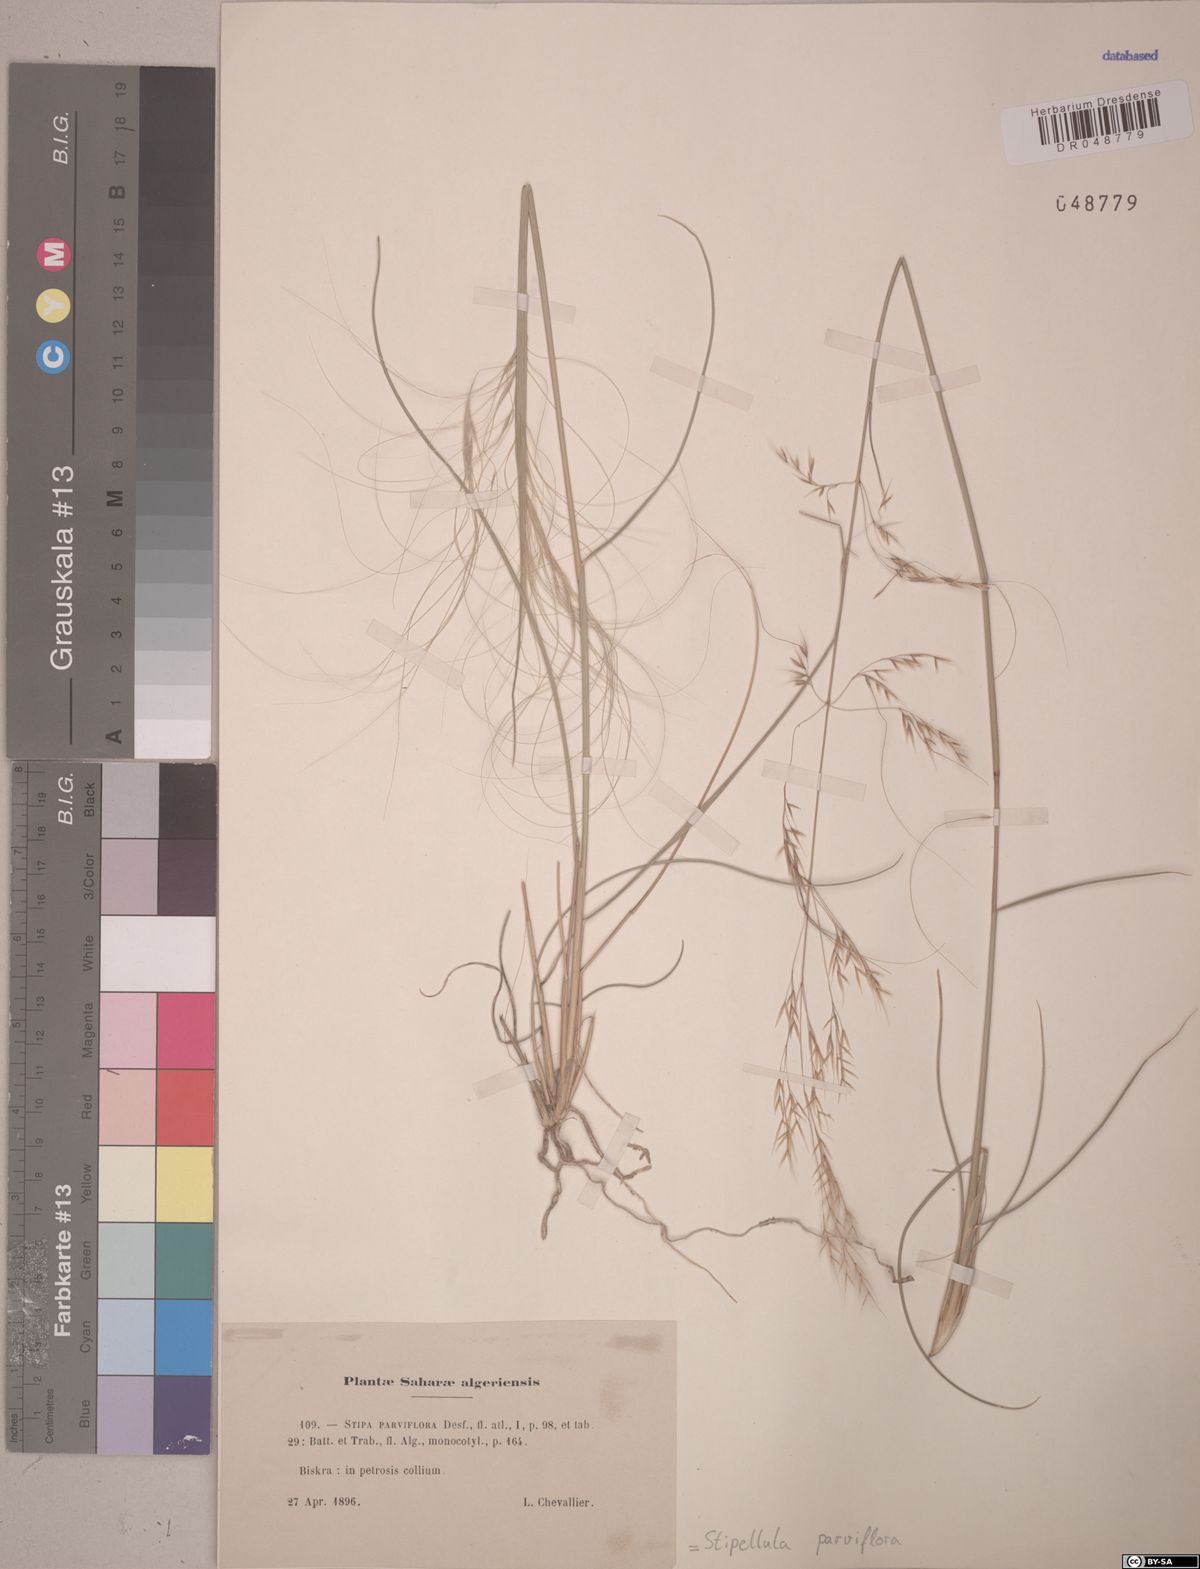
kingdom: Plantae
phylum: Tracheophyta
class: Liliopsida
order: Poales
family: Poaceae
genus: Achnatherum
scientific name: Achnatherum parviflorum
